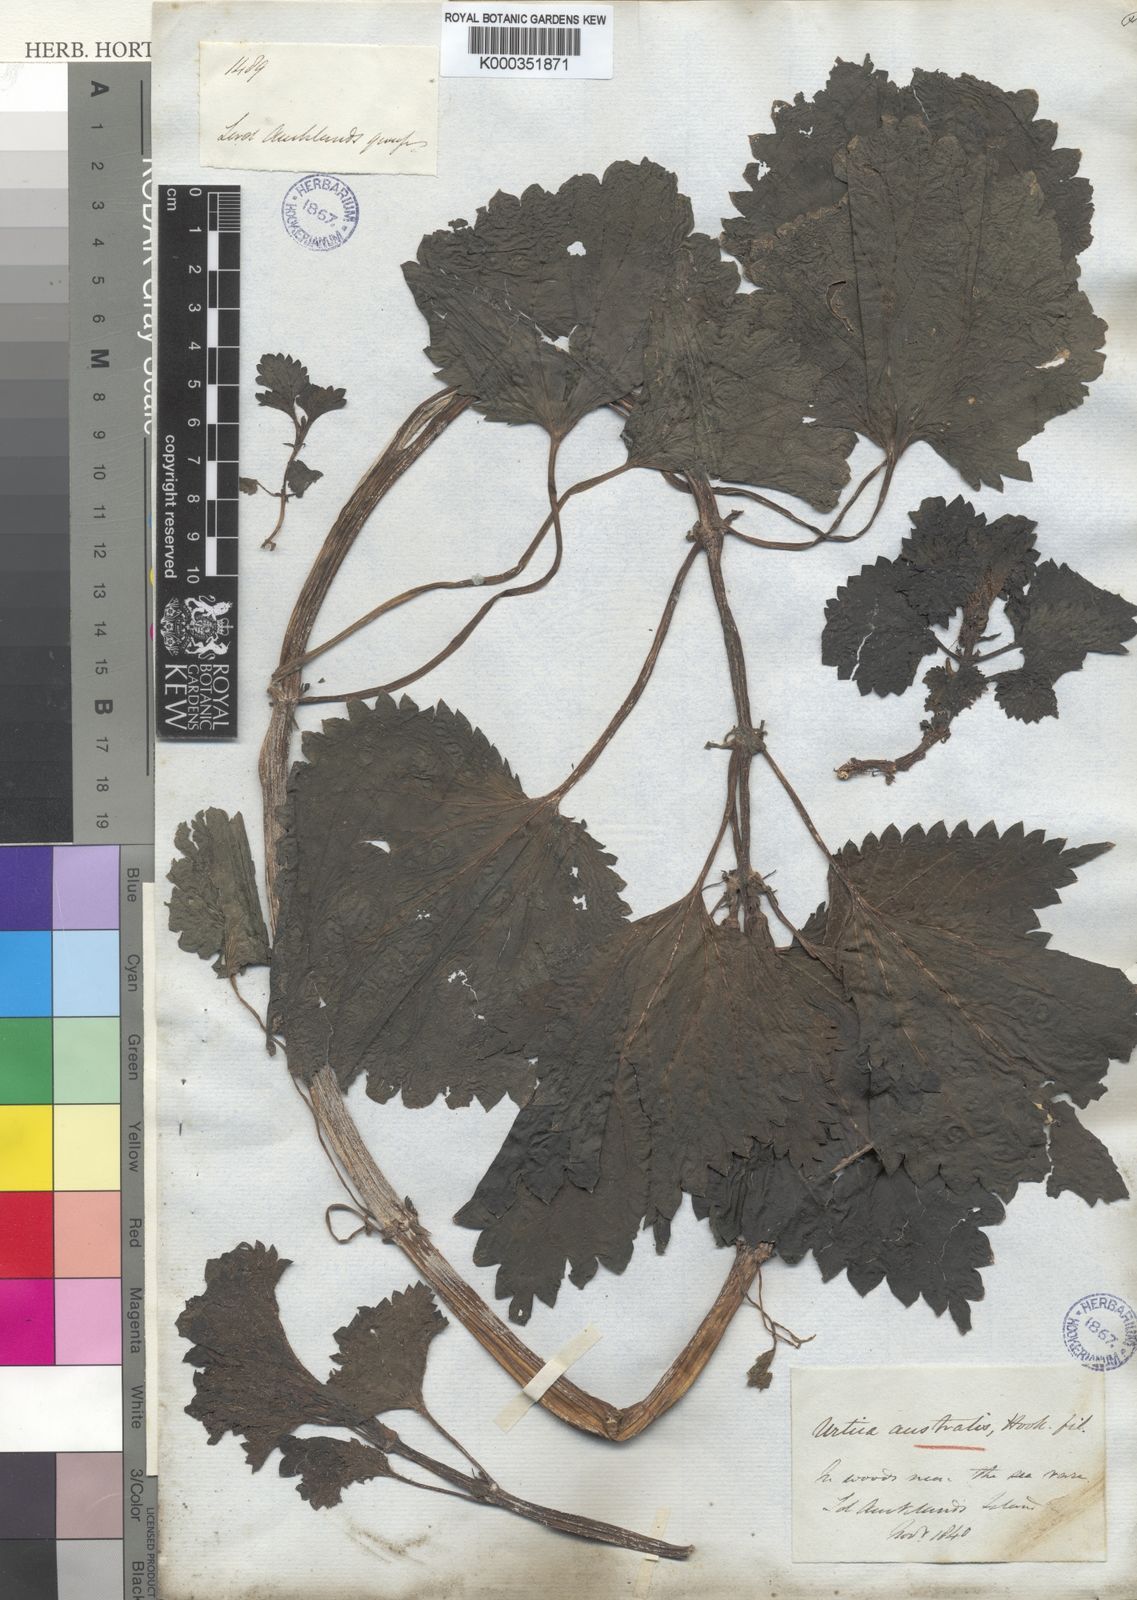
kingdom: Plantae
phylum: Tracheophyta
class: Magnoliopsida
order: Rosales
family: Urticaceae
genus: Urtica
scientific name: Urtica australis
